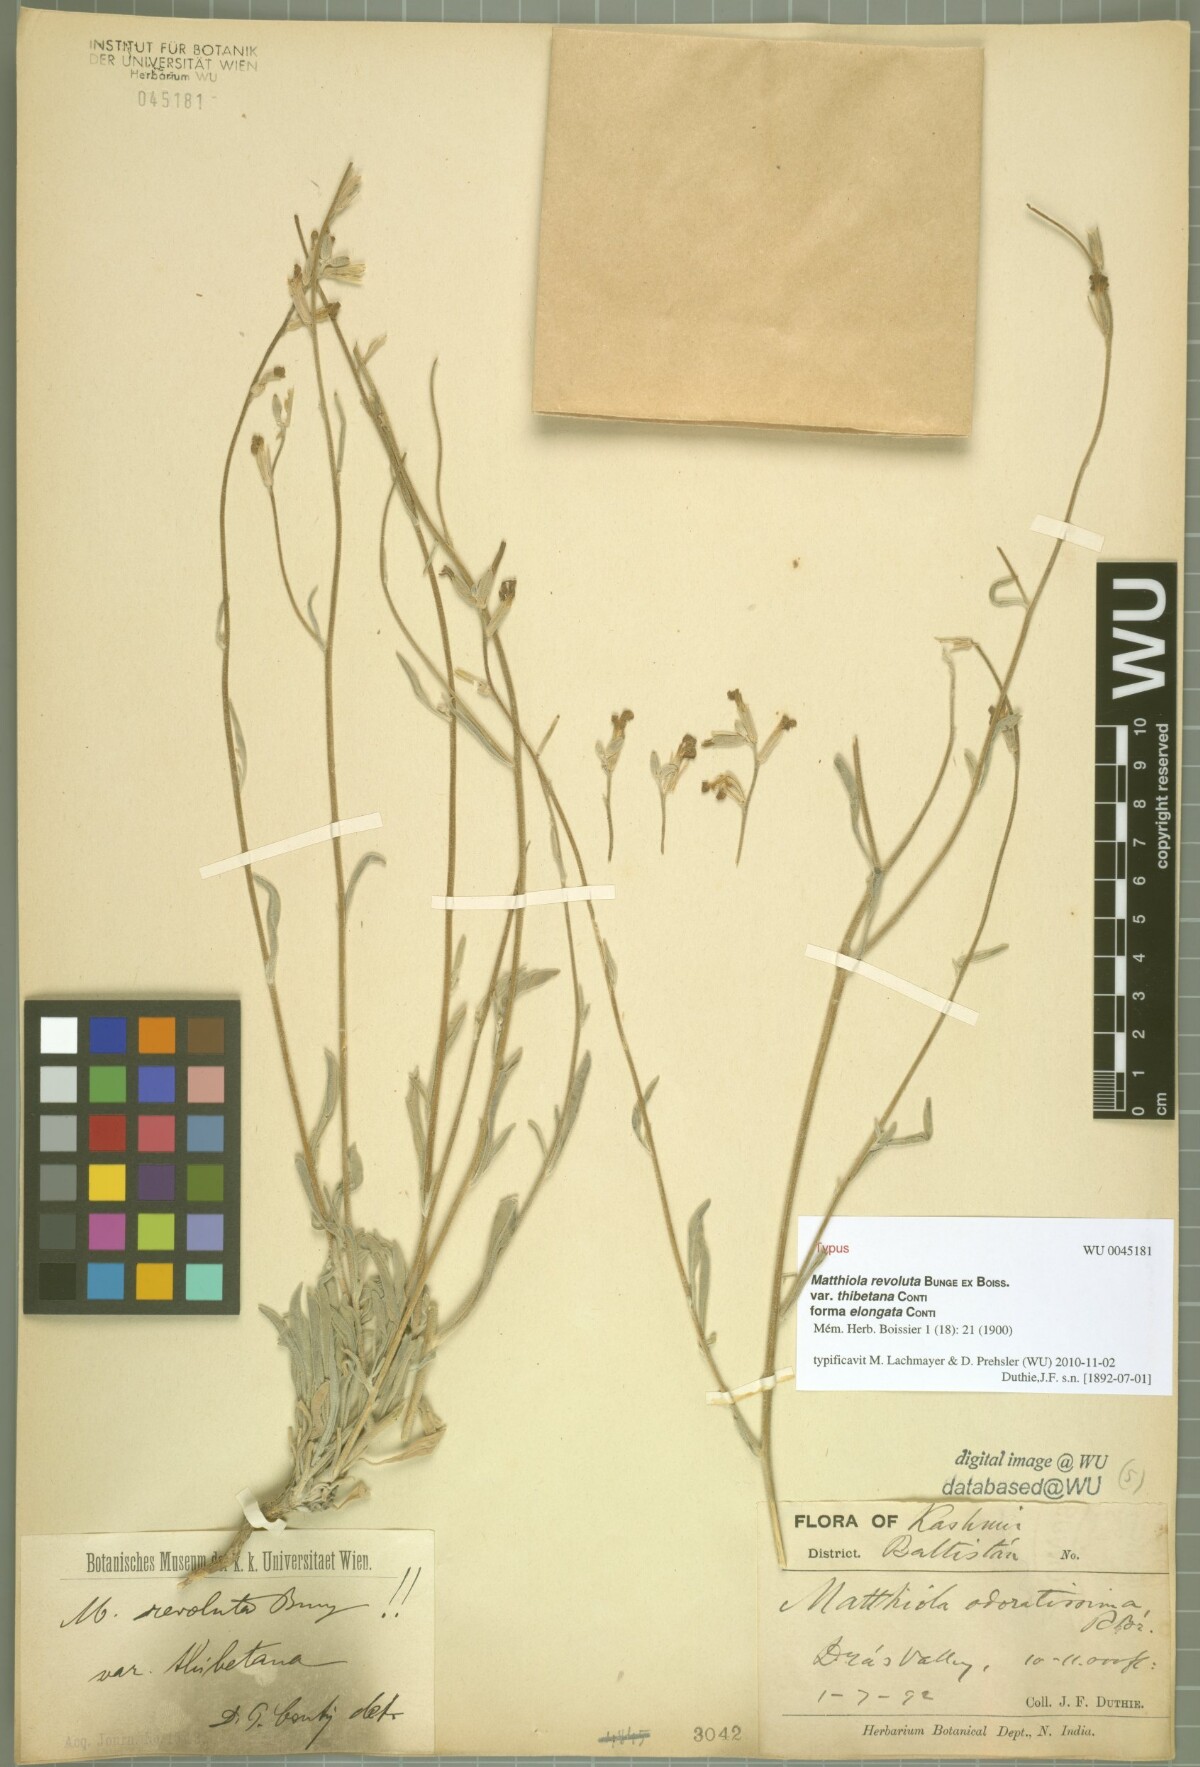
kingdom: Plantae
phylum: Tracheophyta
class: Magnoliopsida
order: Brassicales
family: Brassicaceae
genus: Matthiola
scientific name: Matthiola revoluta
